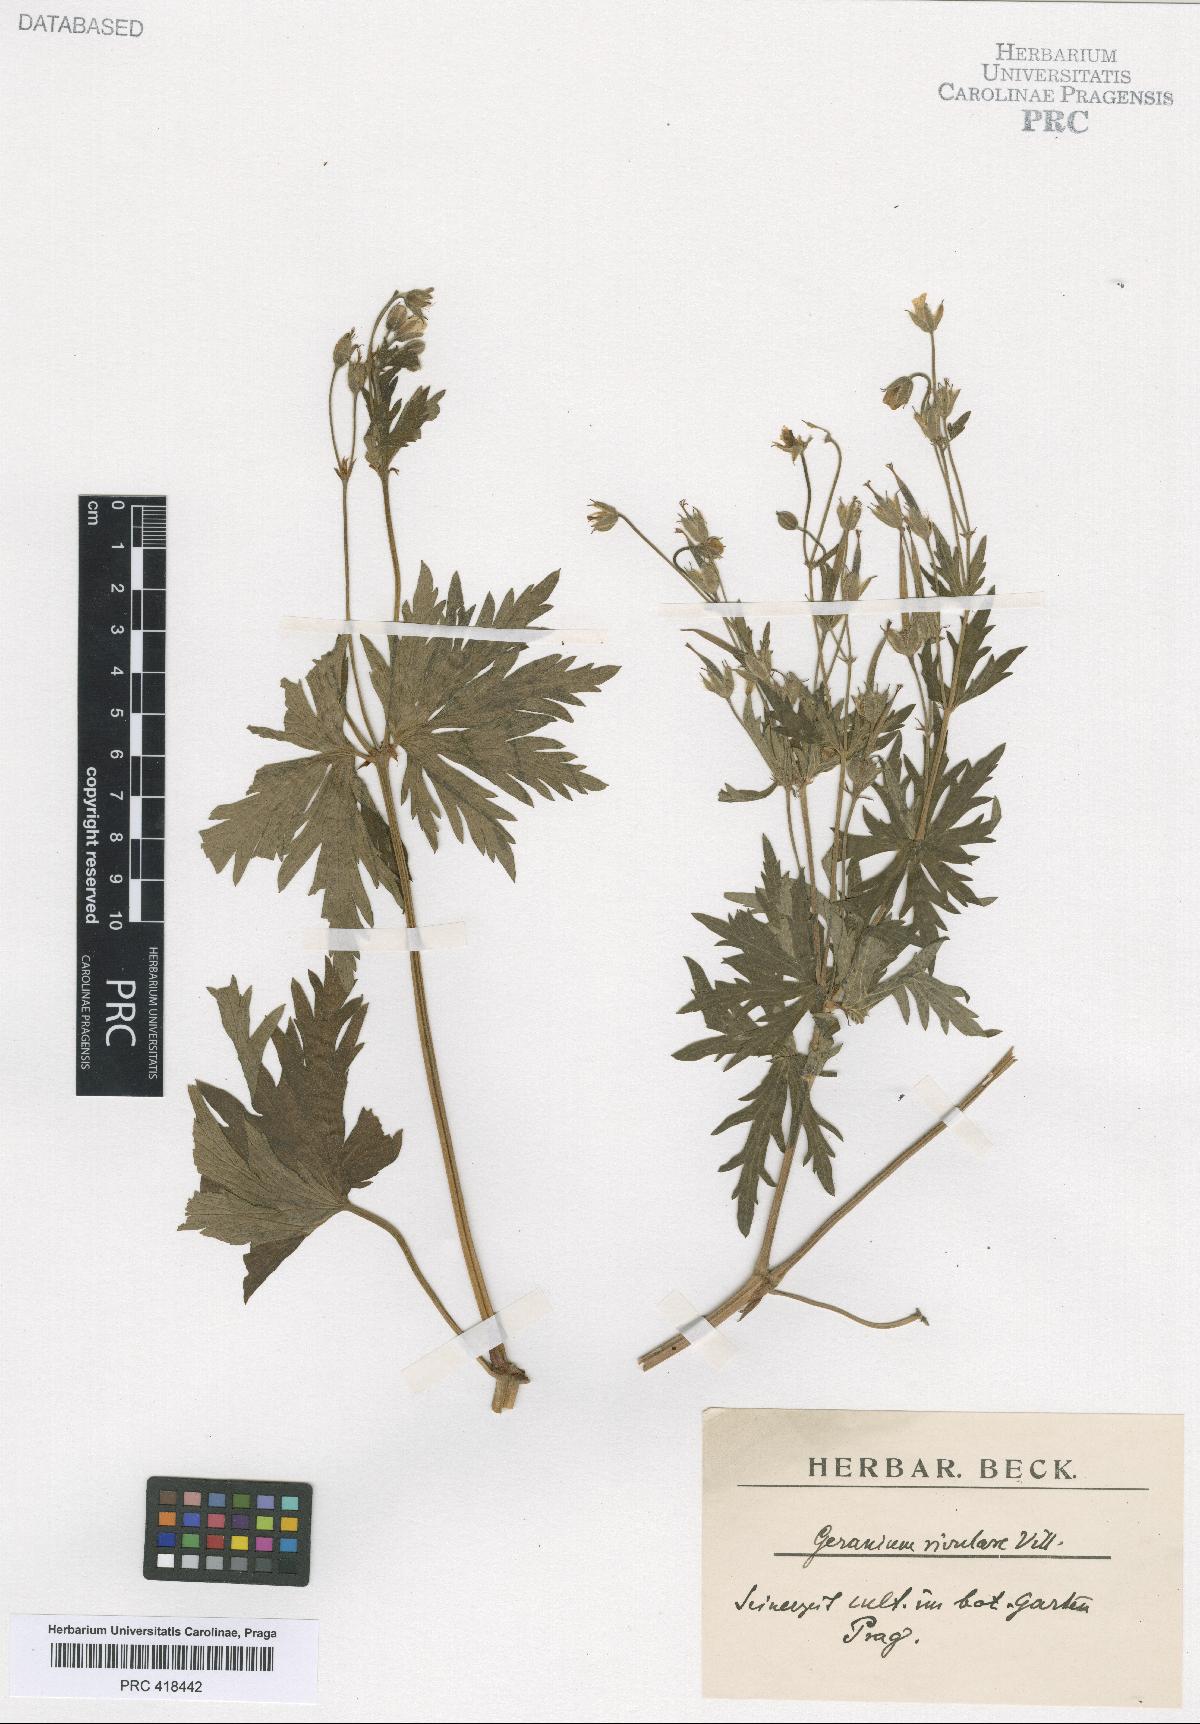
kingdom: Plantae
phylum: Tracheophyta
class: Magnoliopsida
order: Geraniales
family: Geraniaceae
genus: Geranium
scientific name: Geranium rivulare
